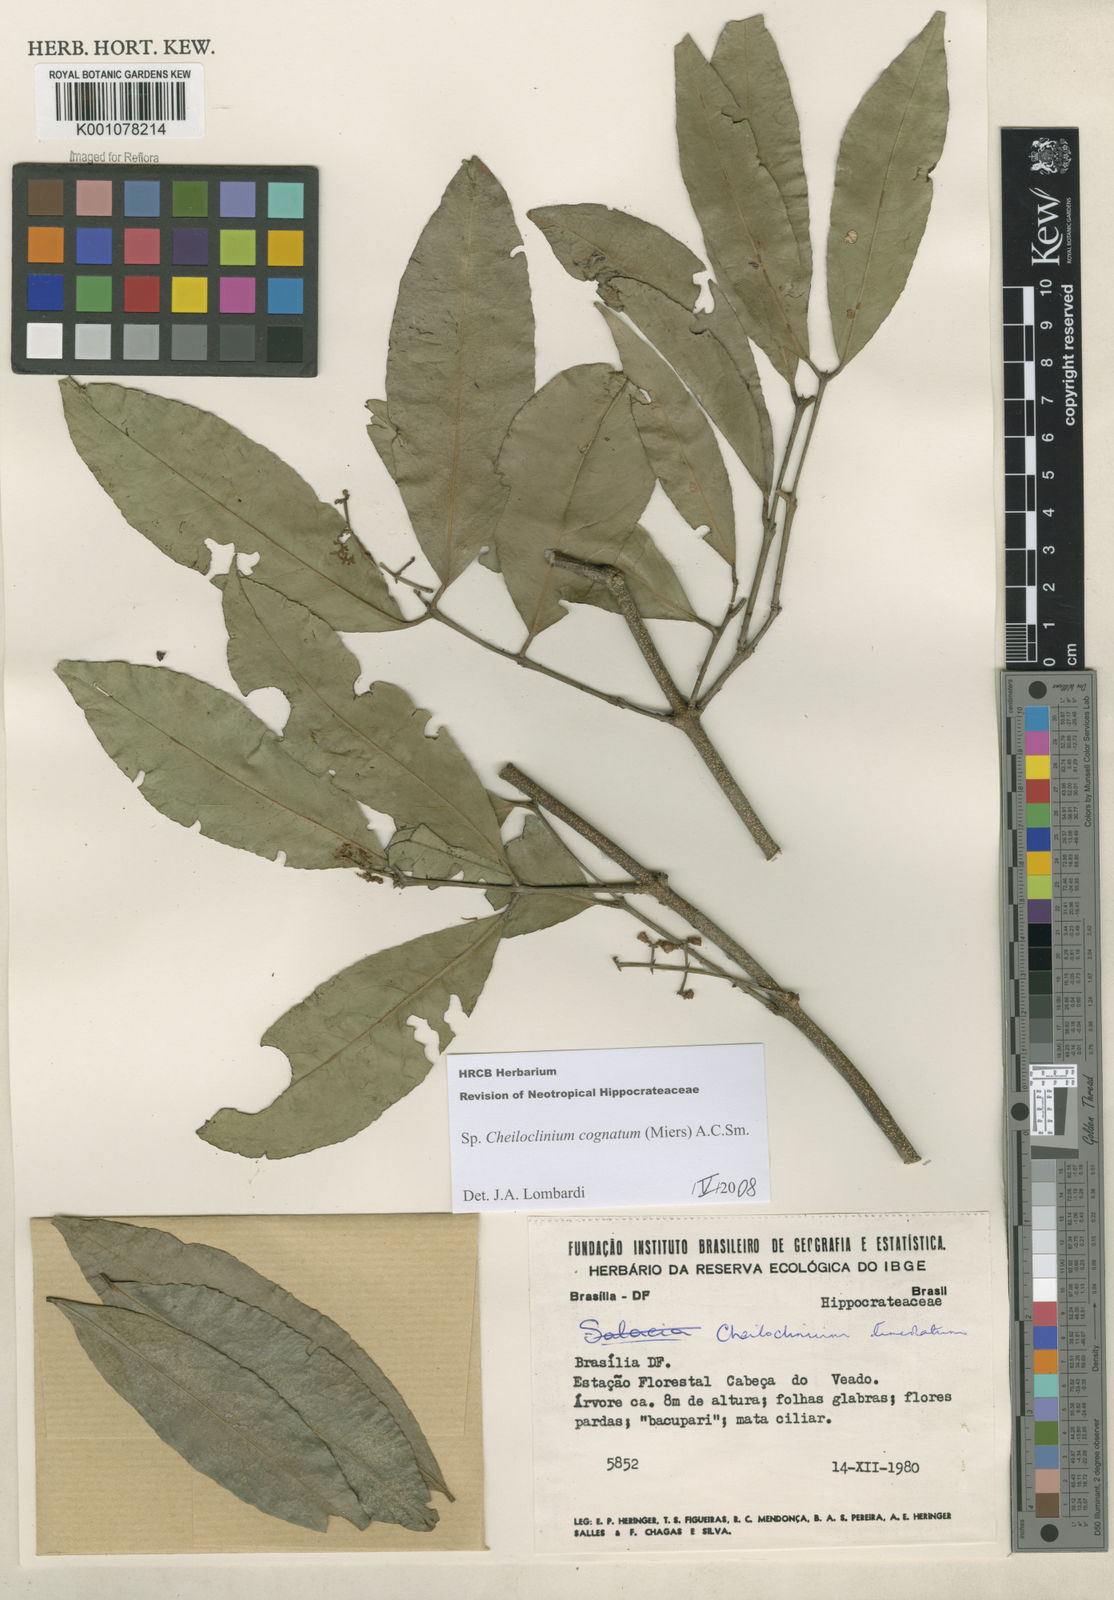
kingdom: Plantae
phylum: Tracheophyta
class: Magnoliopsida
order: Celastrales
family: Celastraceae
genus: Cheiloclinium
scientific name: Cheiloclinium cognatum
